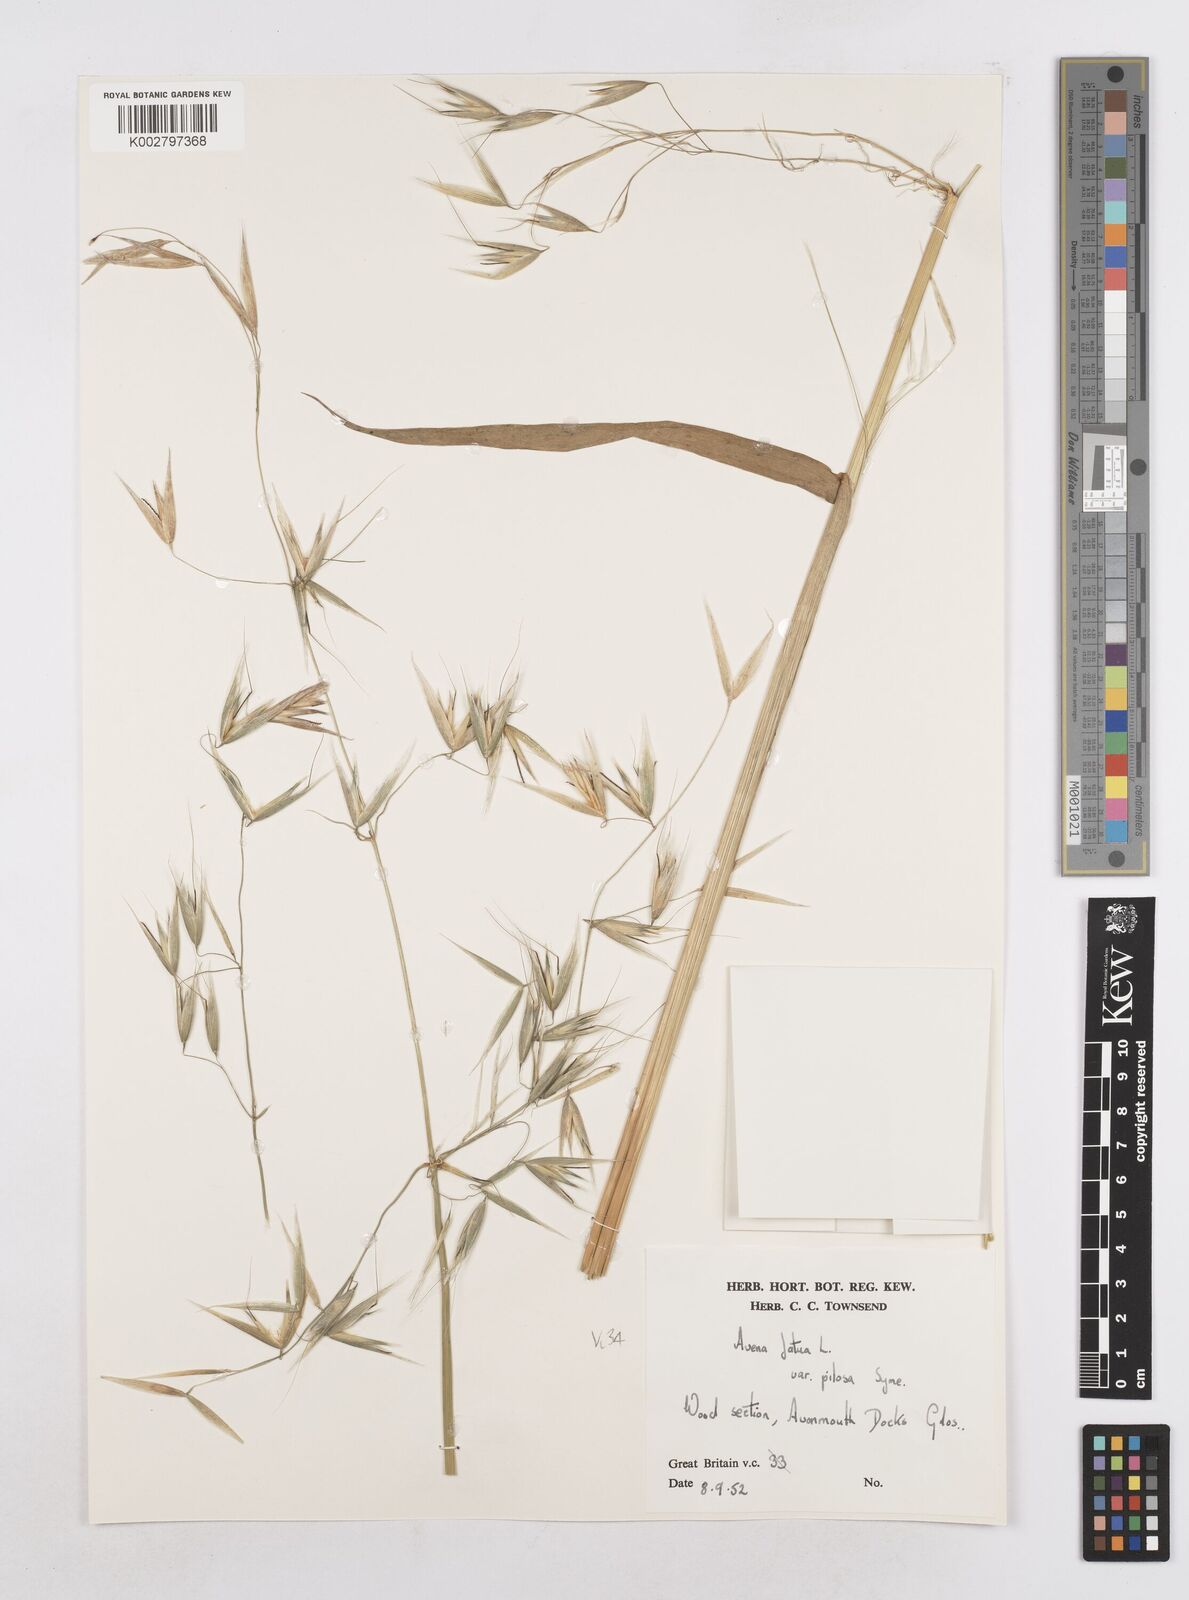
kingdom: Plantae
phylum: Tracheophyta
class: Liliopsida
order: Poales
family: Poaceae
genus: Avena
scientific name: Avena fatua
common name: Wild oat
